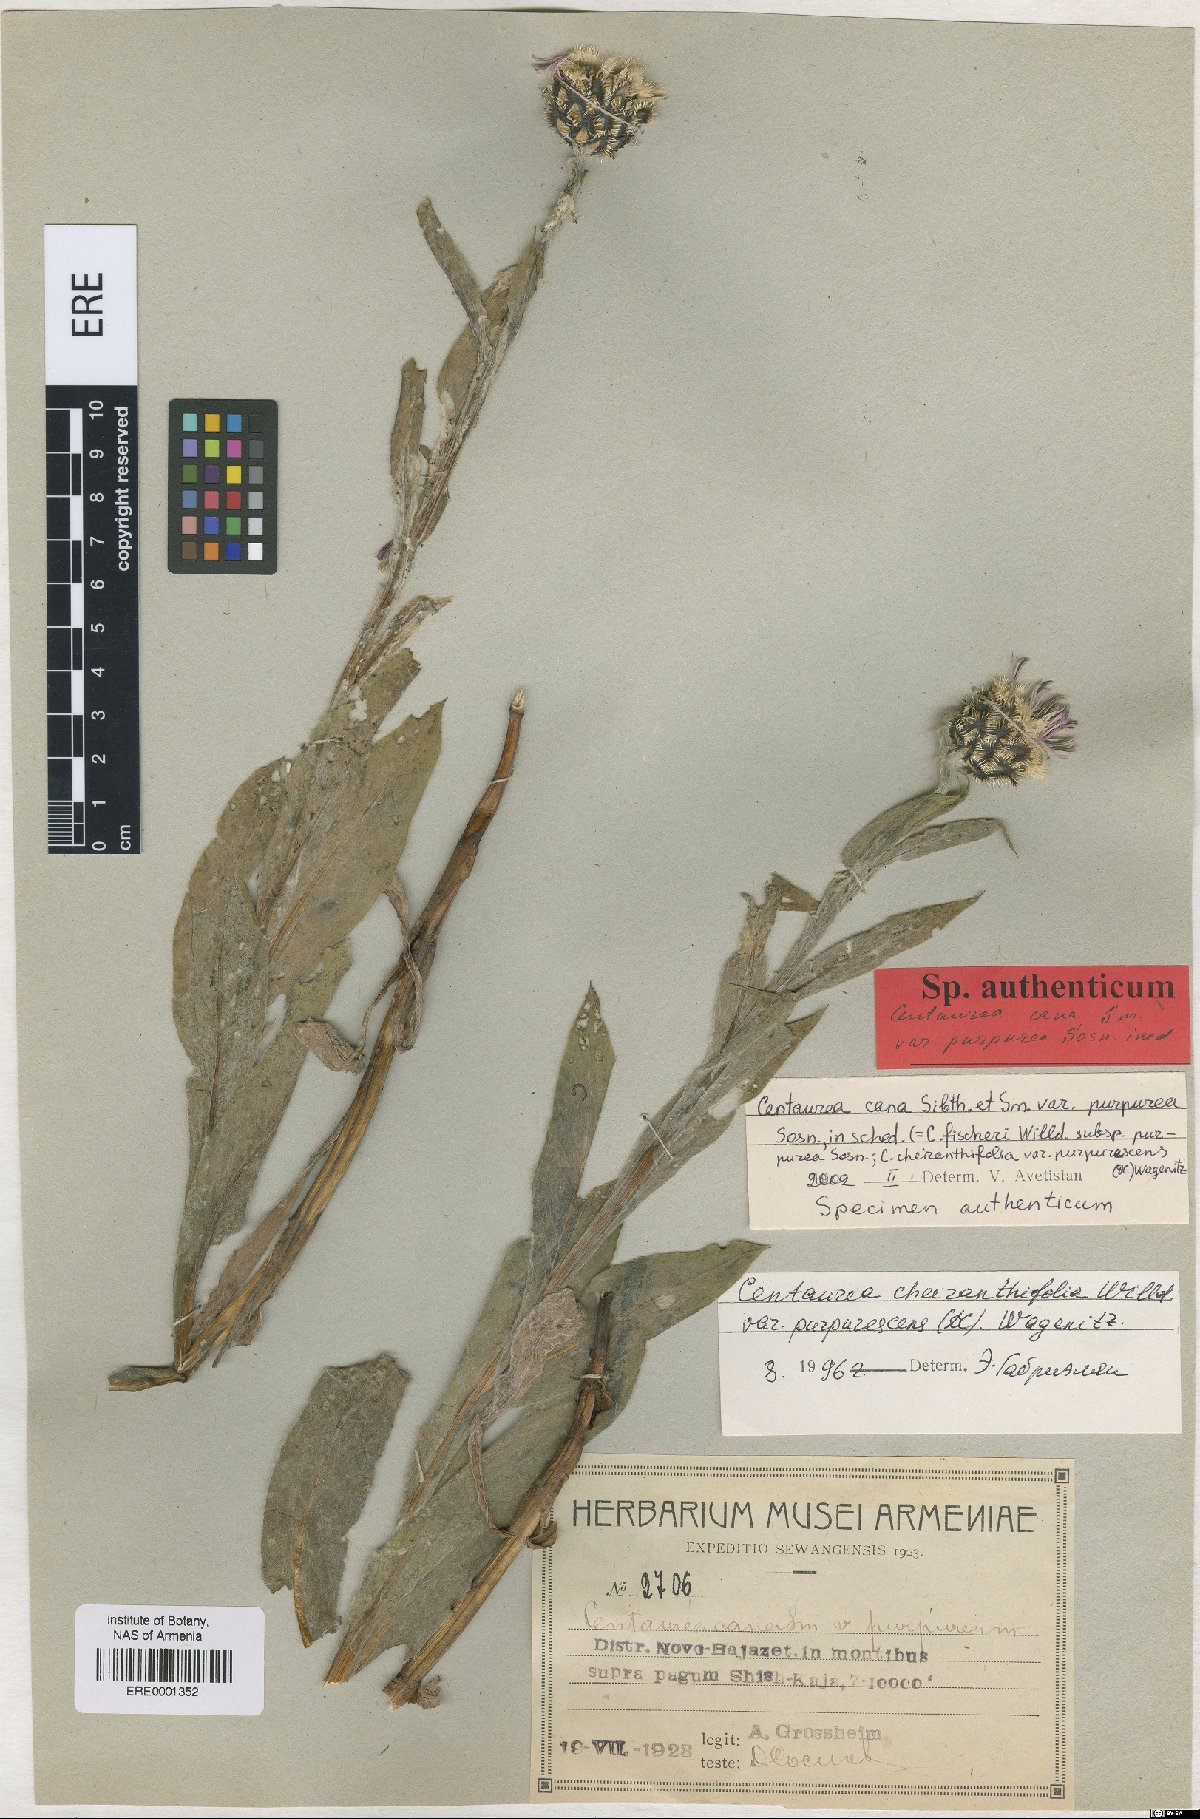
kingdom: Plantae
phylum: Tracheophyta
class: Magnoliopsida
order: Asterales
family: Asteraceae
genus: Centaurea
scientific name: Centaurea triumfettii
